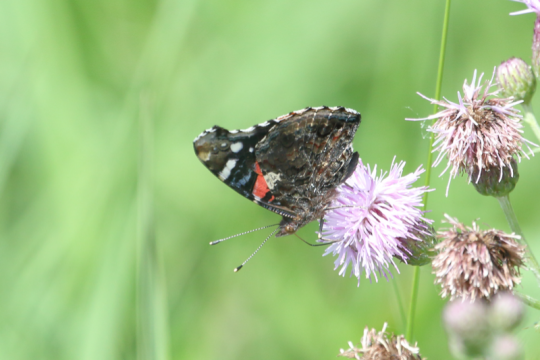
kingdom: Animalia
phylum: Arthropoda
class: Insecta
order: Lepidoptera
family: Nymphalidae
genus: Vanessa
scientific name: Vanessa atalanta
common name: Red Admiral
